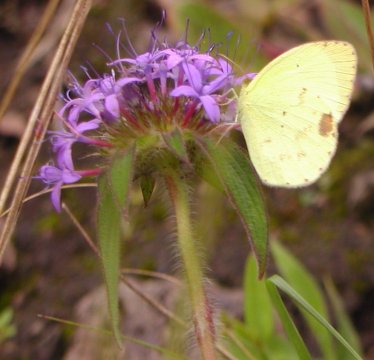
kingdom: Animalia
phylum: Arthropoda
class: Insecta
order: Lepidoptera
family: Pieridae
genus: Pyrisitia
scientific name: Pyrisitia nise
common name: Mimosa Yellow
